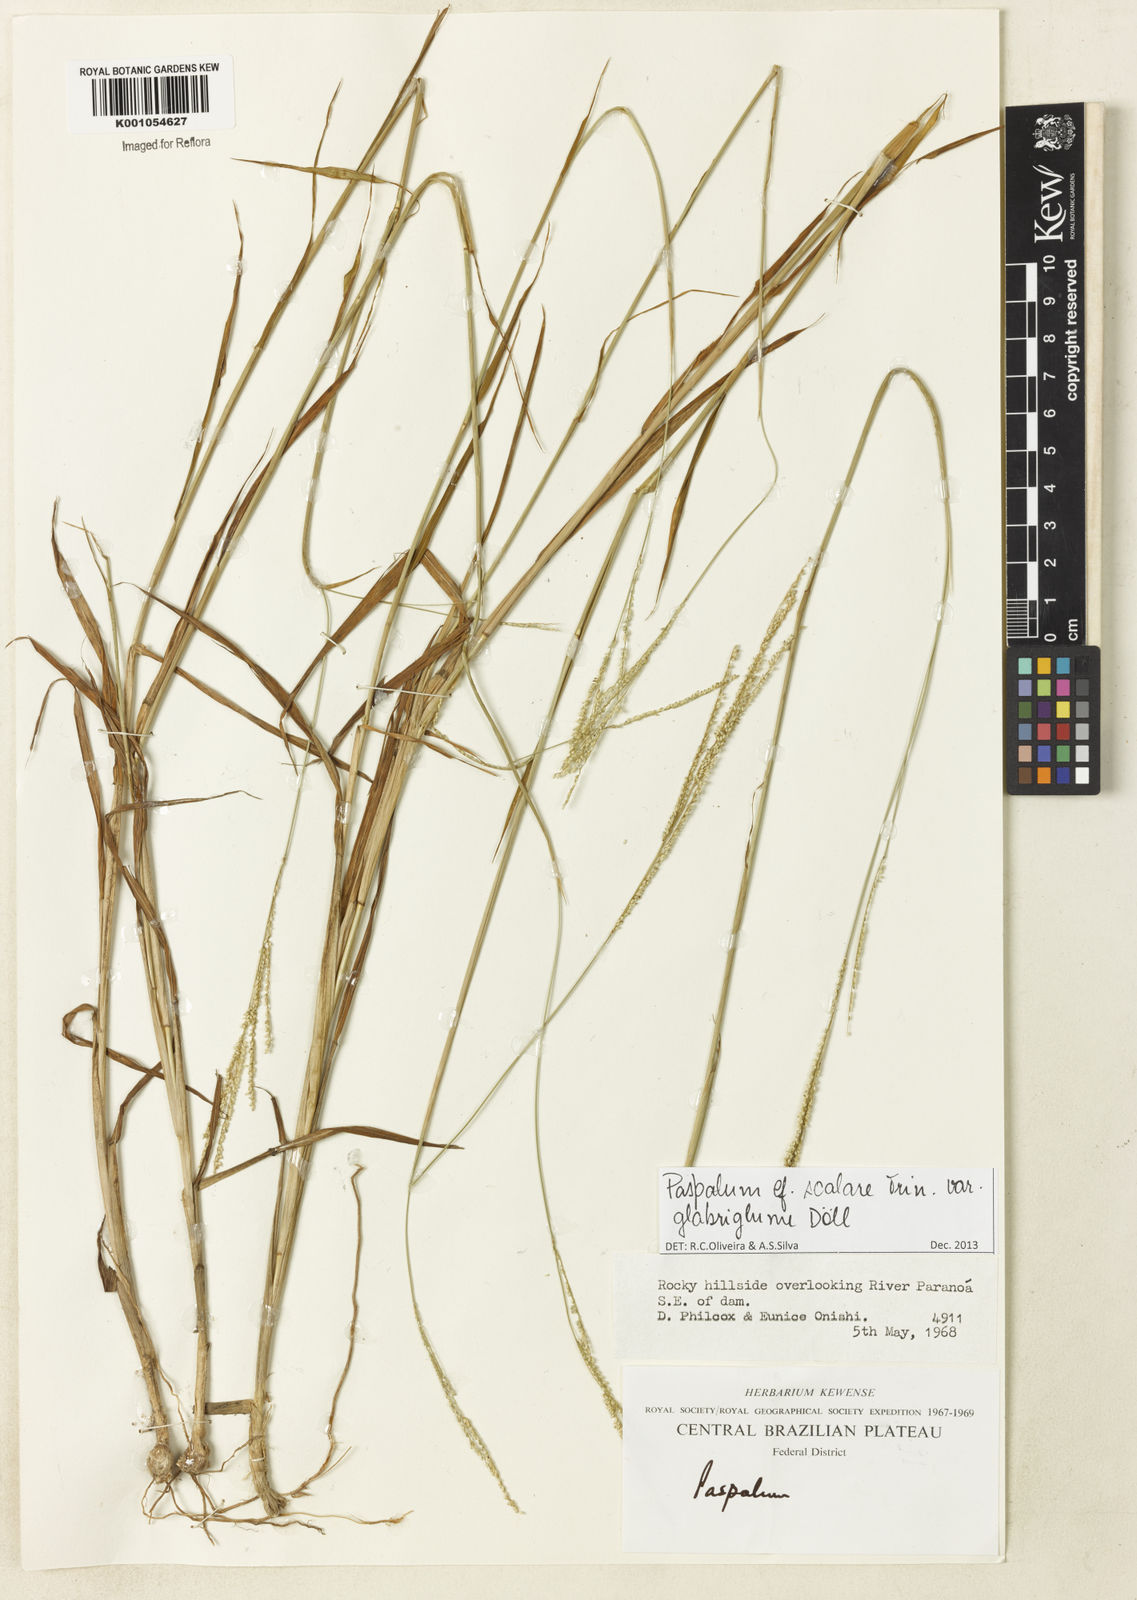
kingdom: Plantae
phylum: Tracheophyta
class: Liliopsida
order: Poales
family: Poaceae
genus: Paspalum
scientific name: Paspalum scalare
